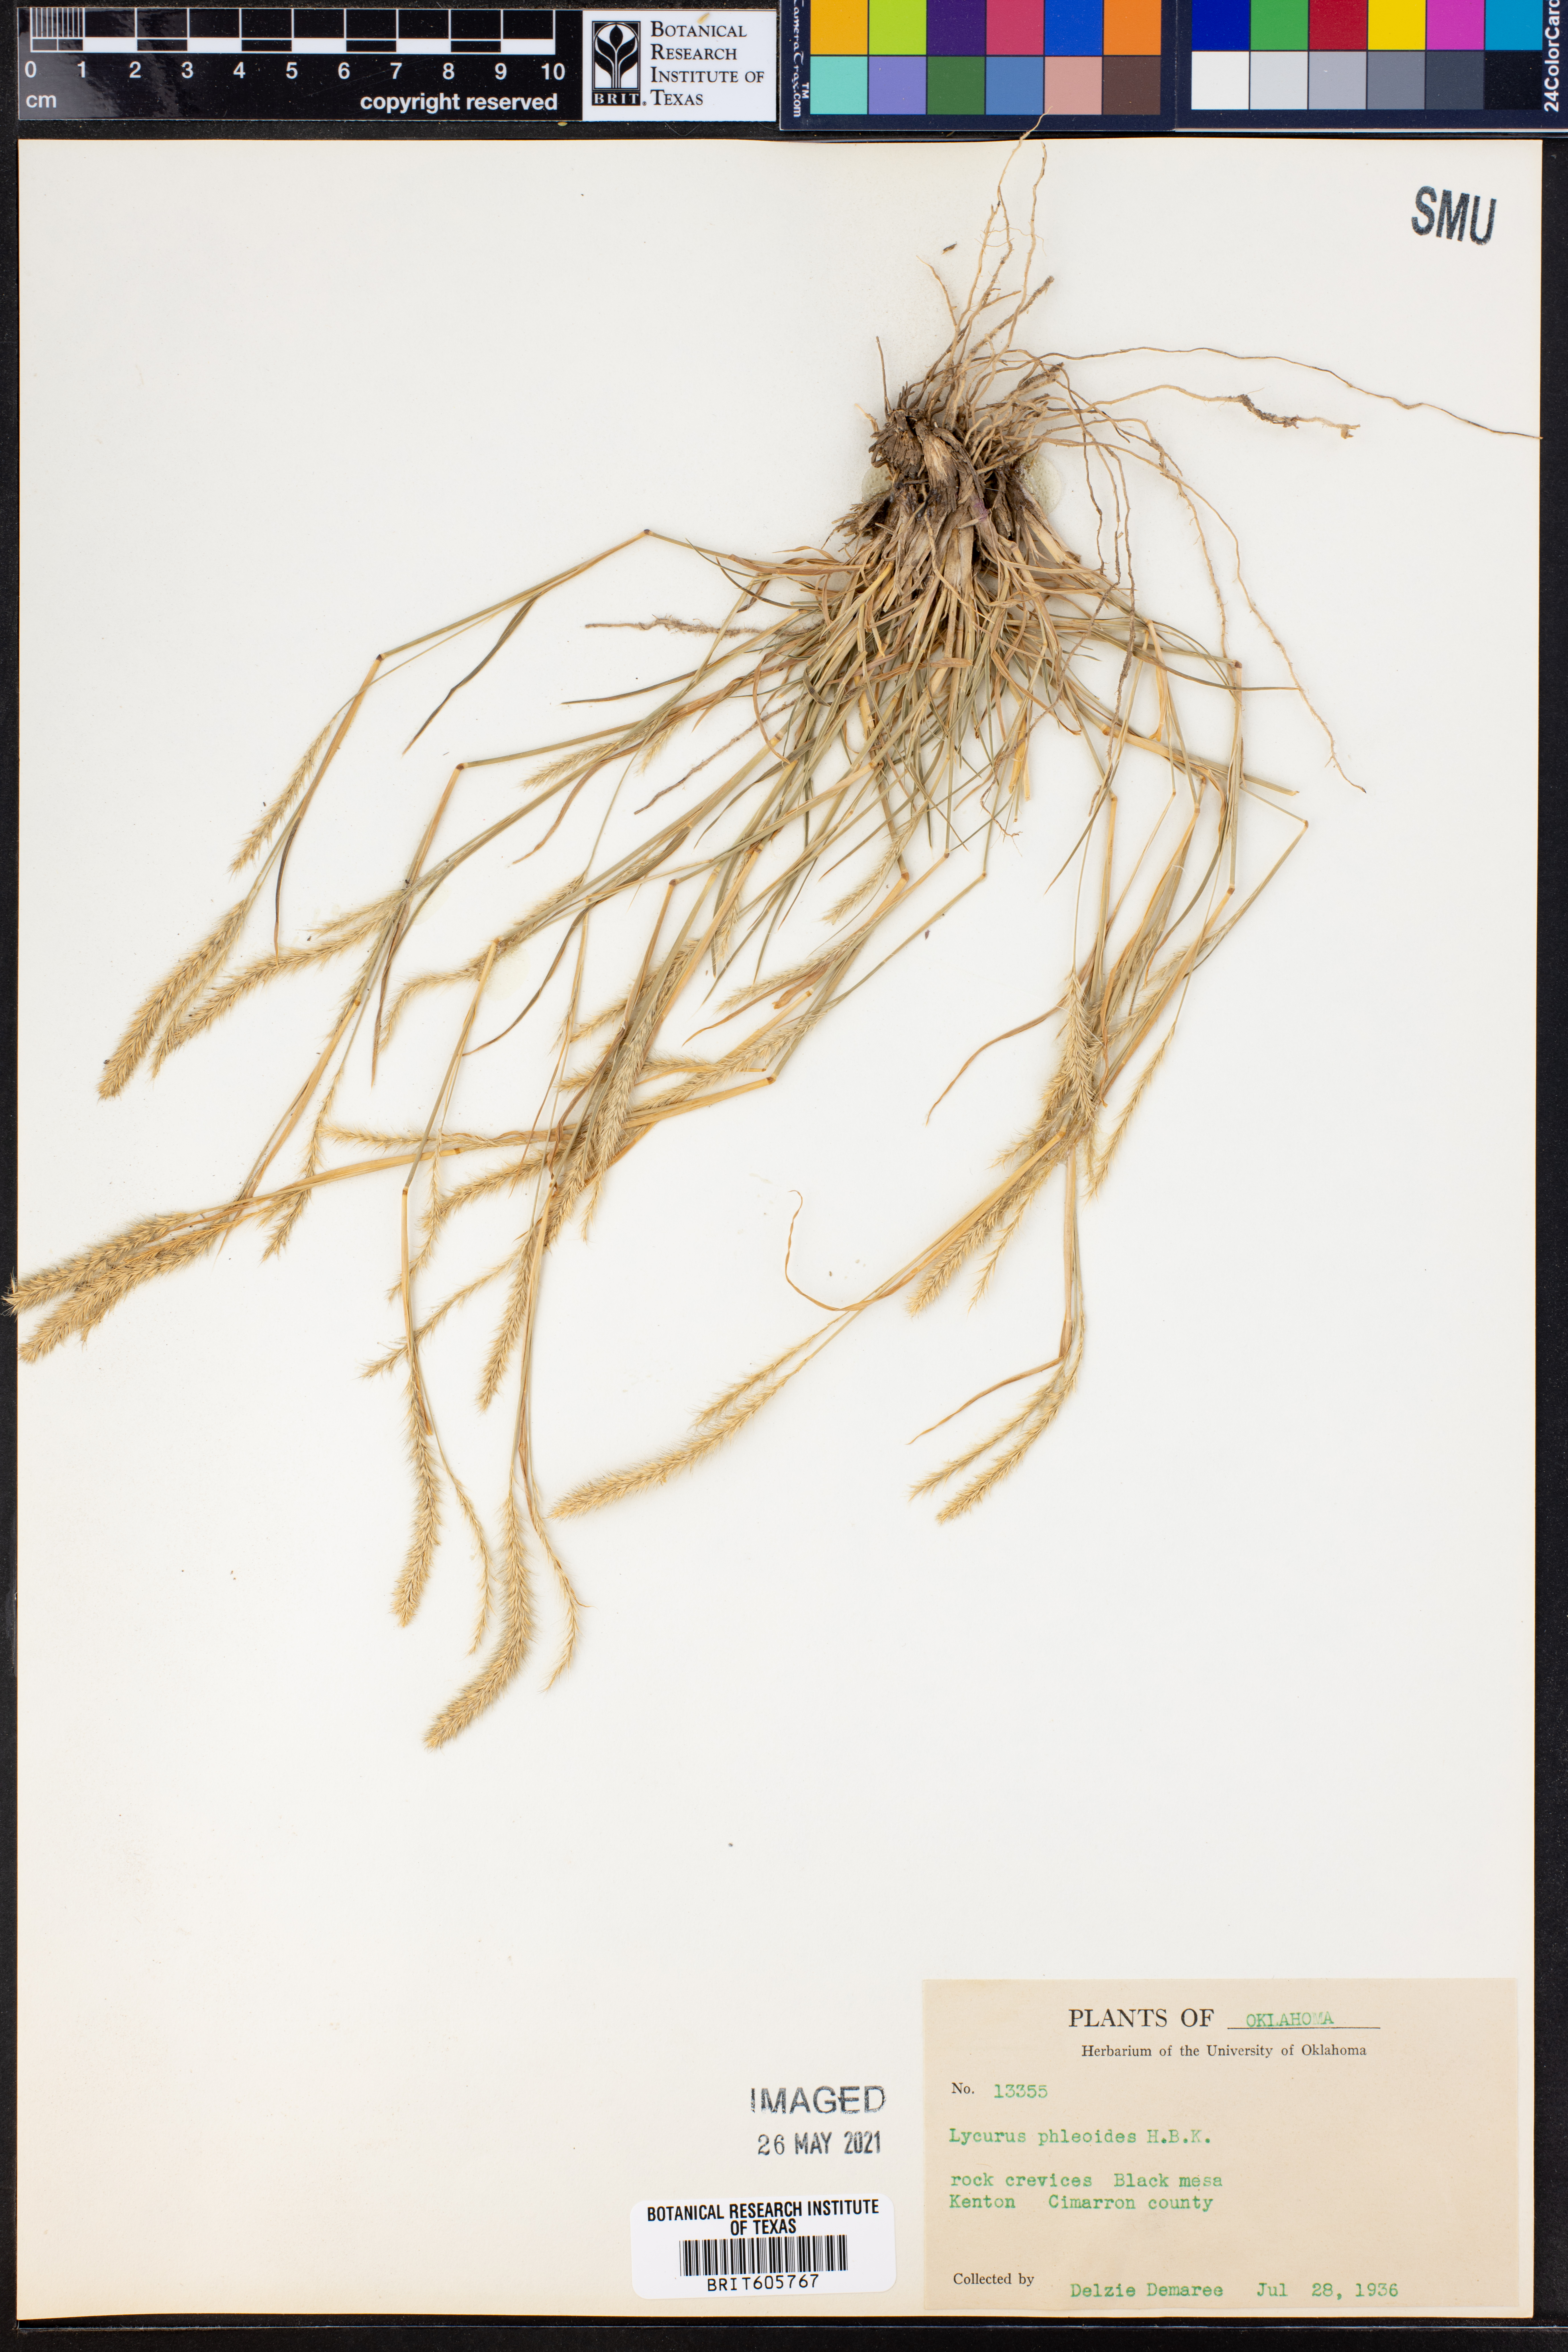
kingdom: Plantae
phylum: Tracheophyta
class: Liliopsida
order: Poales
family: Poaceae
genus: Muhlenbergia
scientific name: Muhlenbergia phleoides
